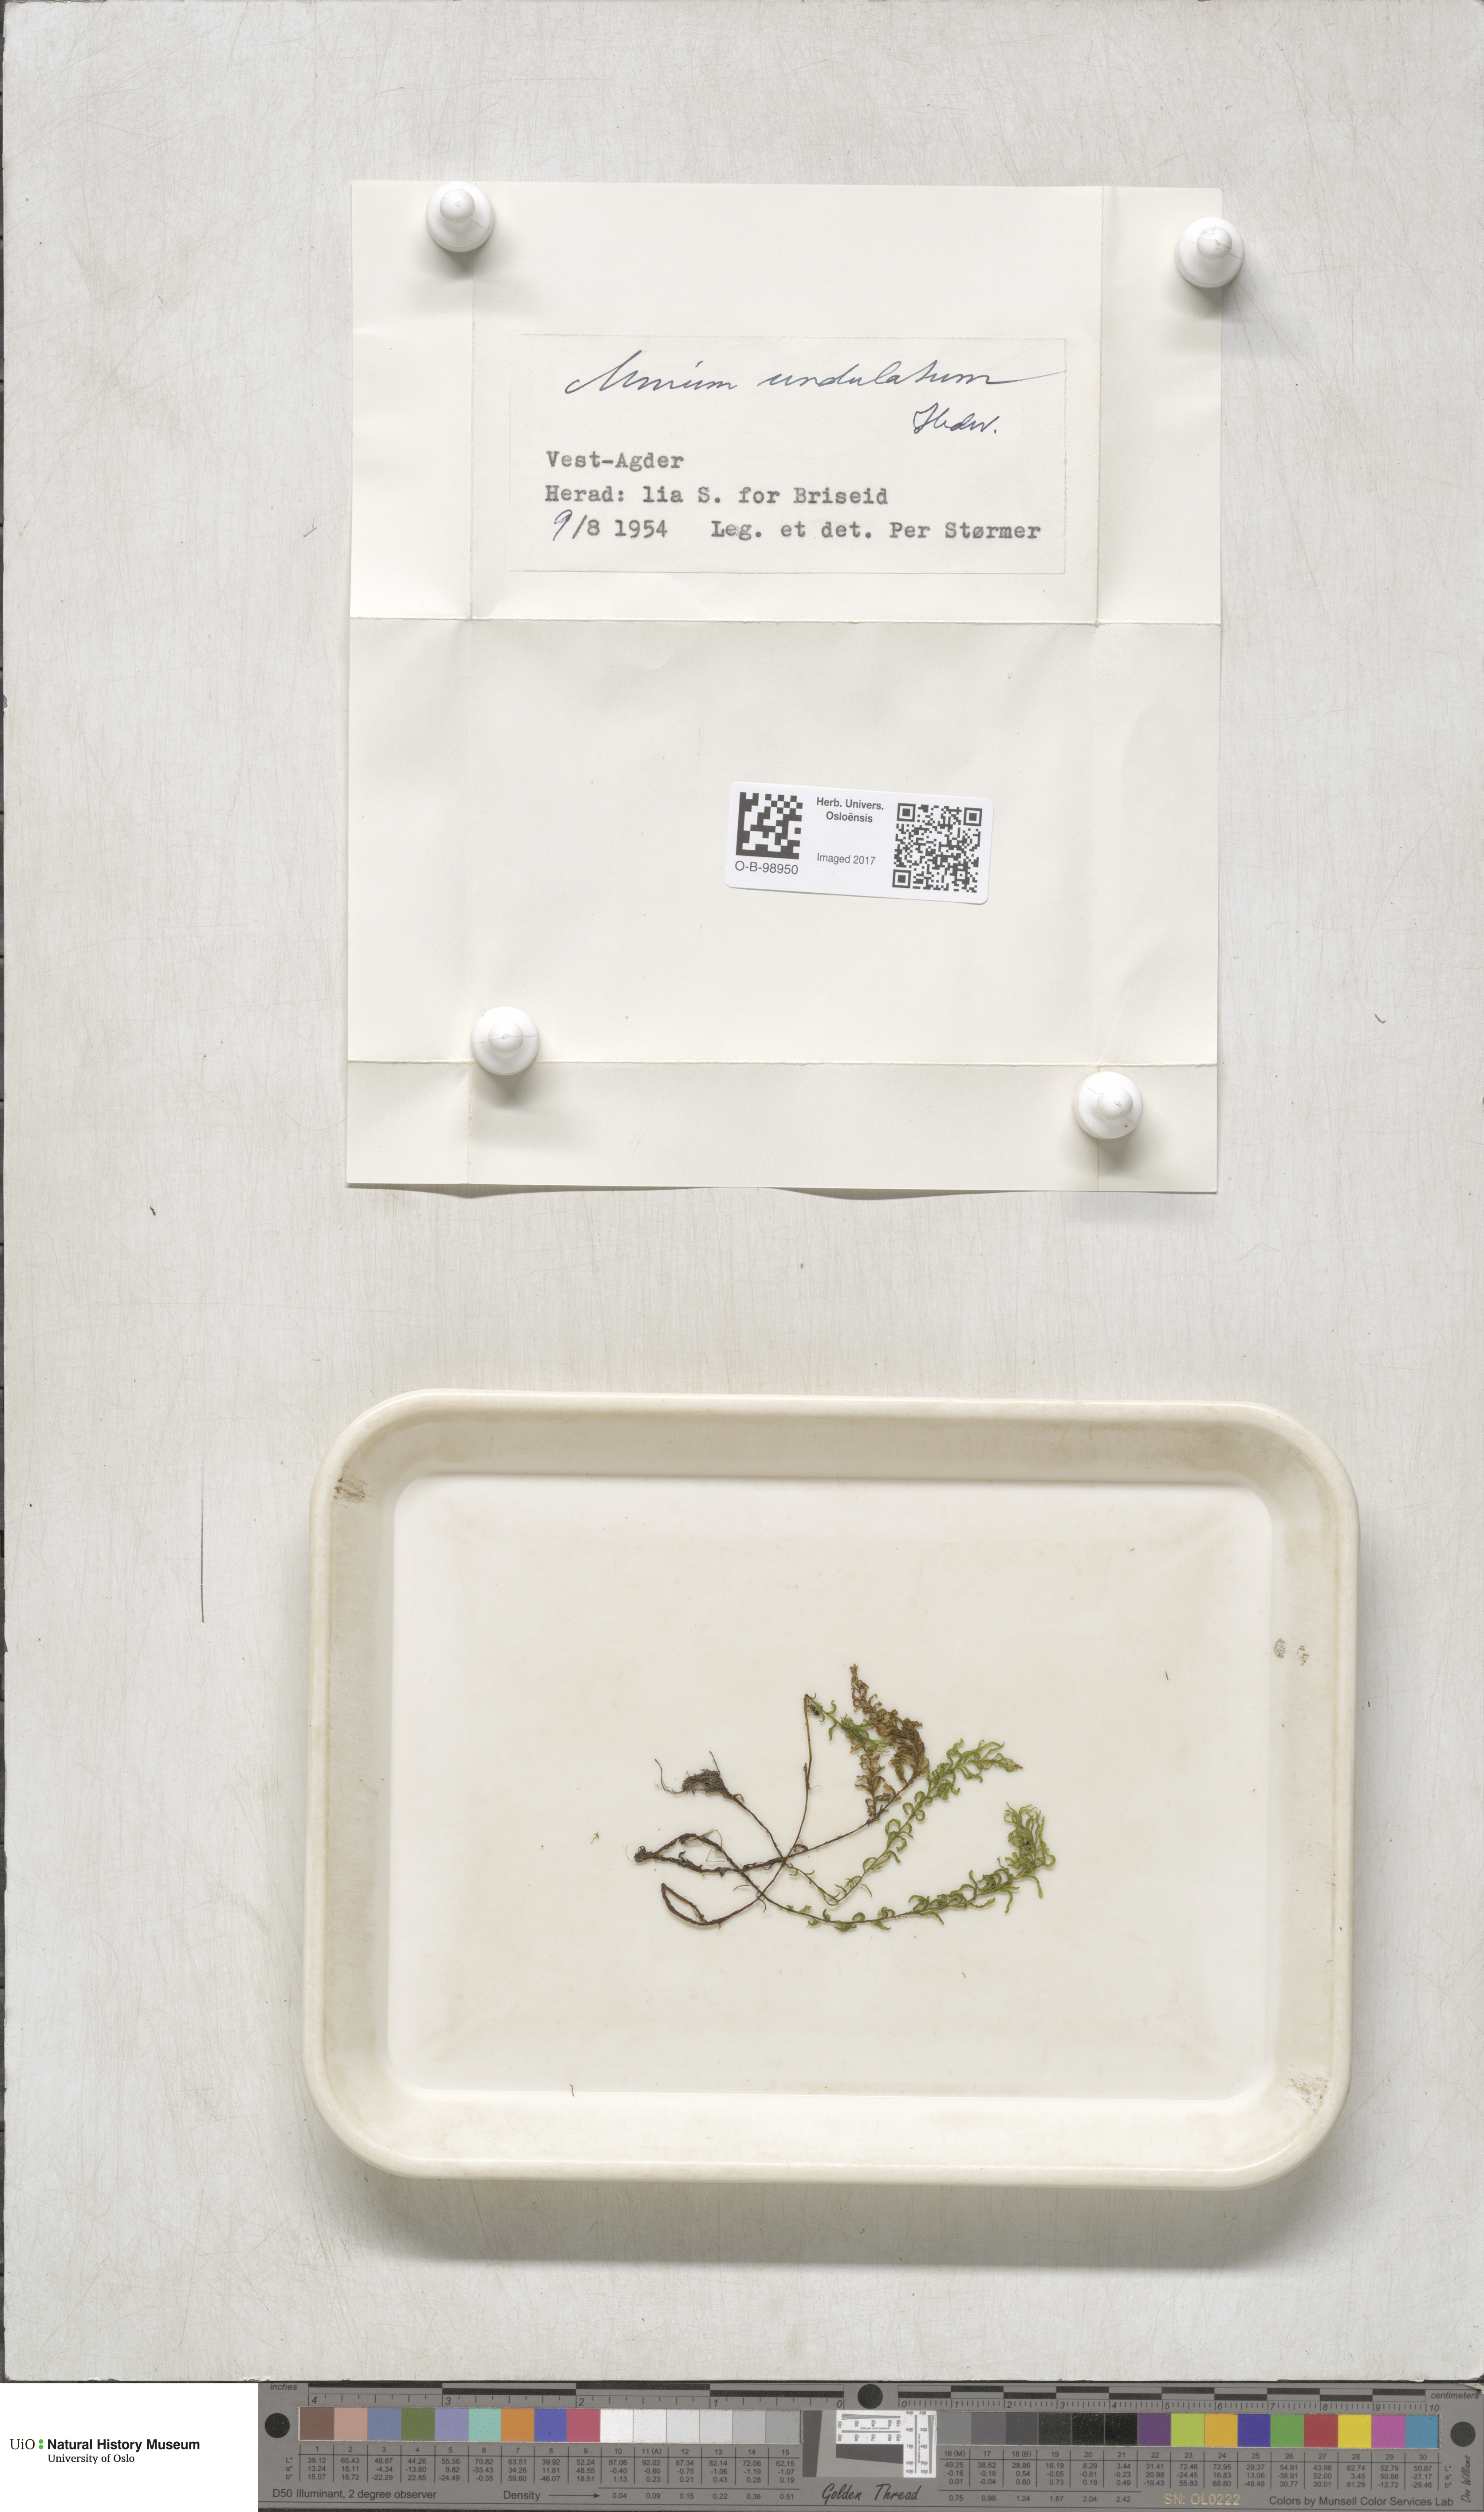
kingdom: Plantae
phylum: Bryophyta
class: Bryopsida
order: Bryales
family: Mniaceae
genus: Plagiomnium
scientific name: Plagiomnium undulatum
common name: Hart's-tongue thyme-moss
